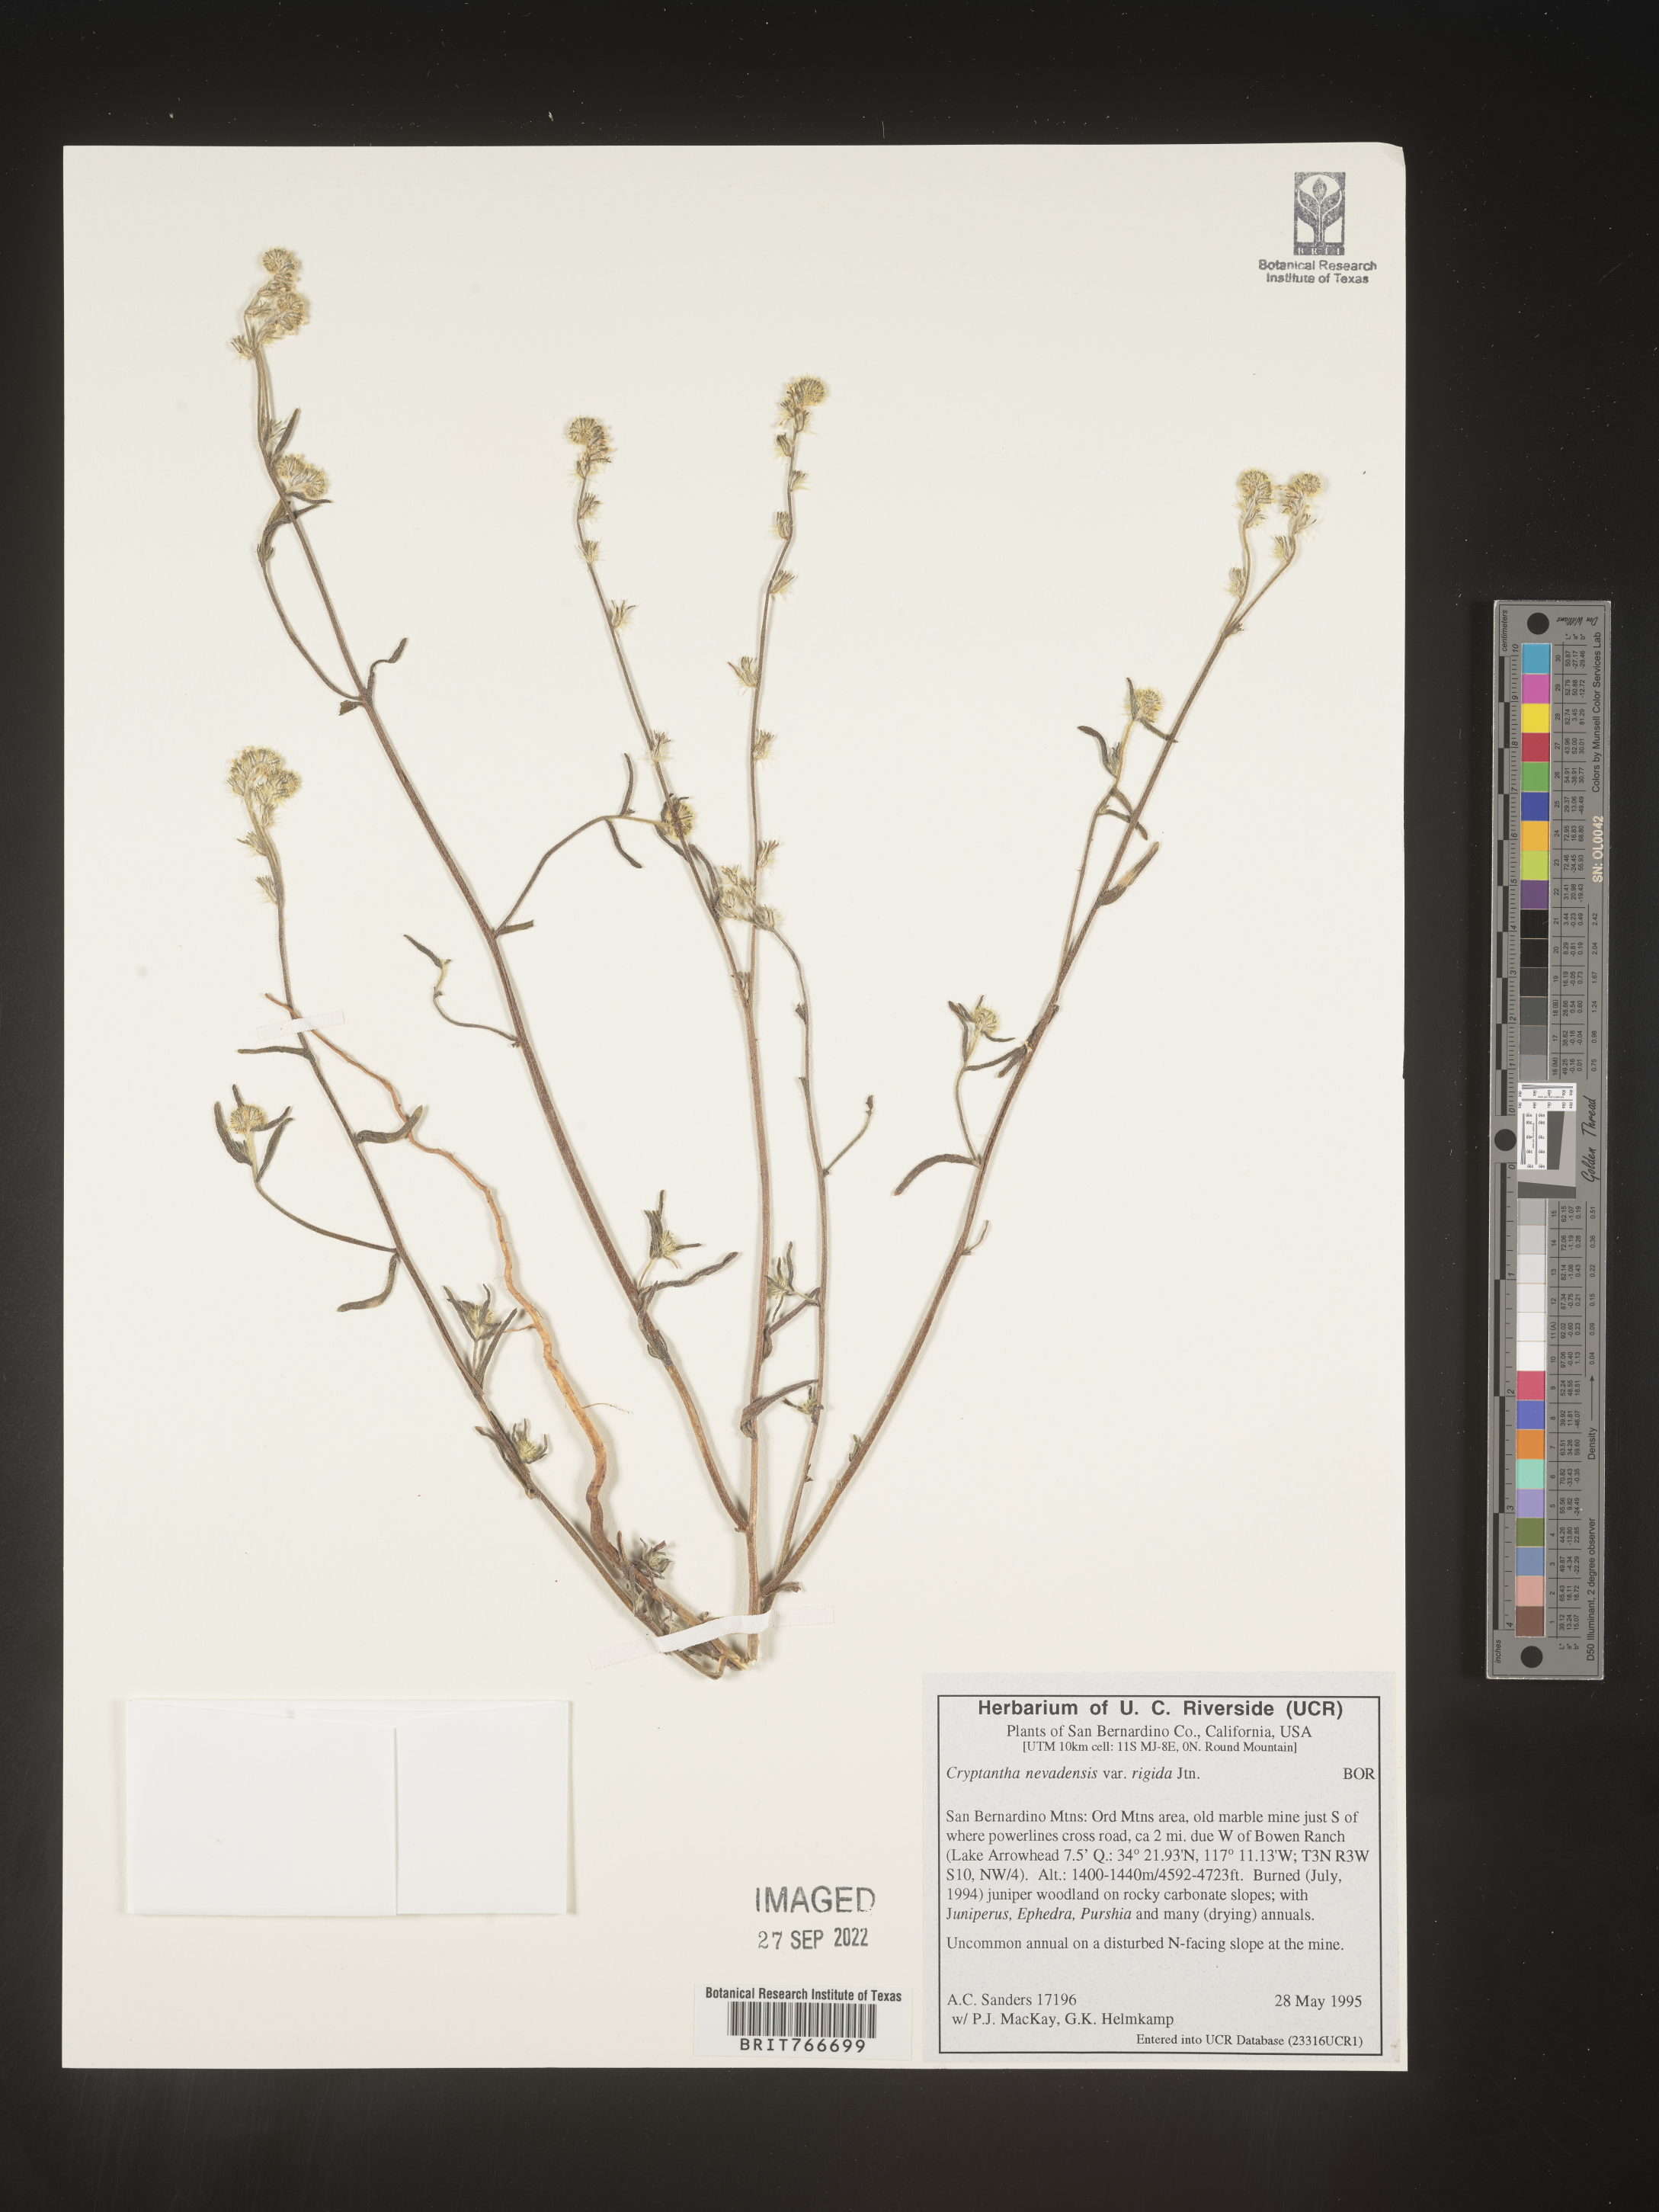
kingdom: Plantae
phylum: Tracheophyta
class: Magnoliopsida
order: Boraginales
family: Boraginaceae
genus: Cryptantha
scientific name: Cryptantha
